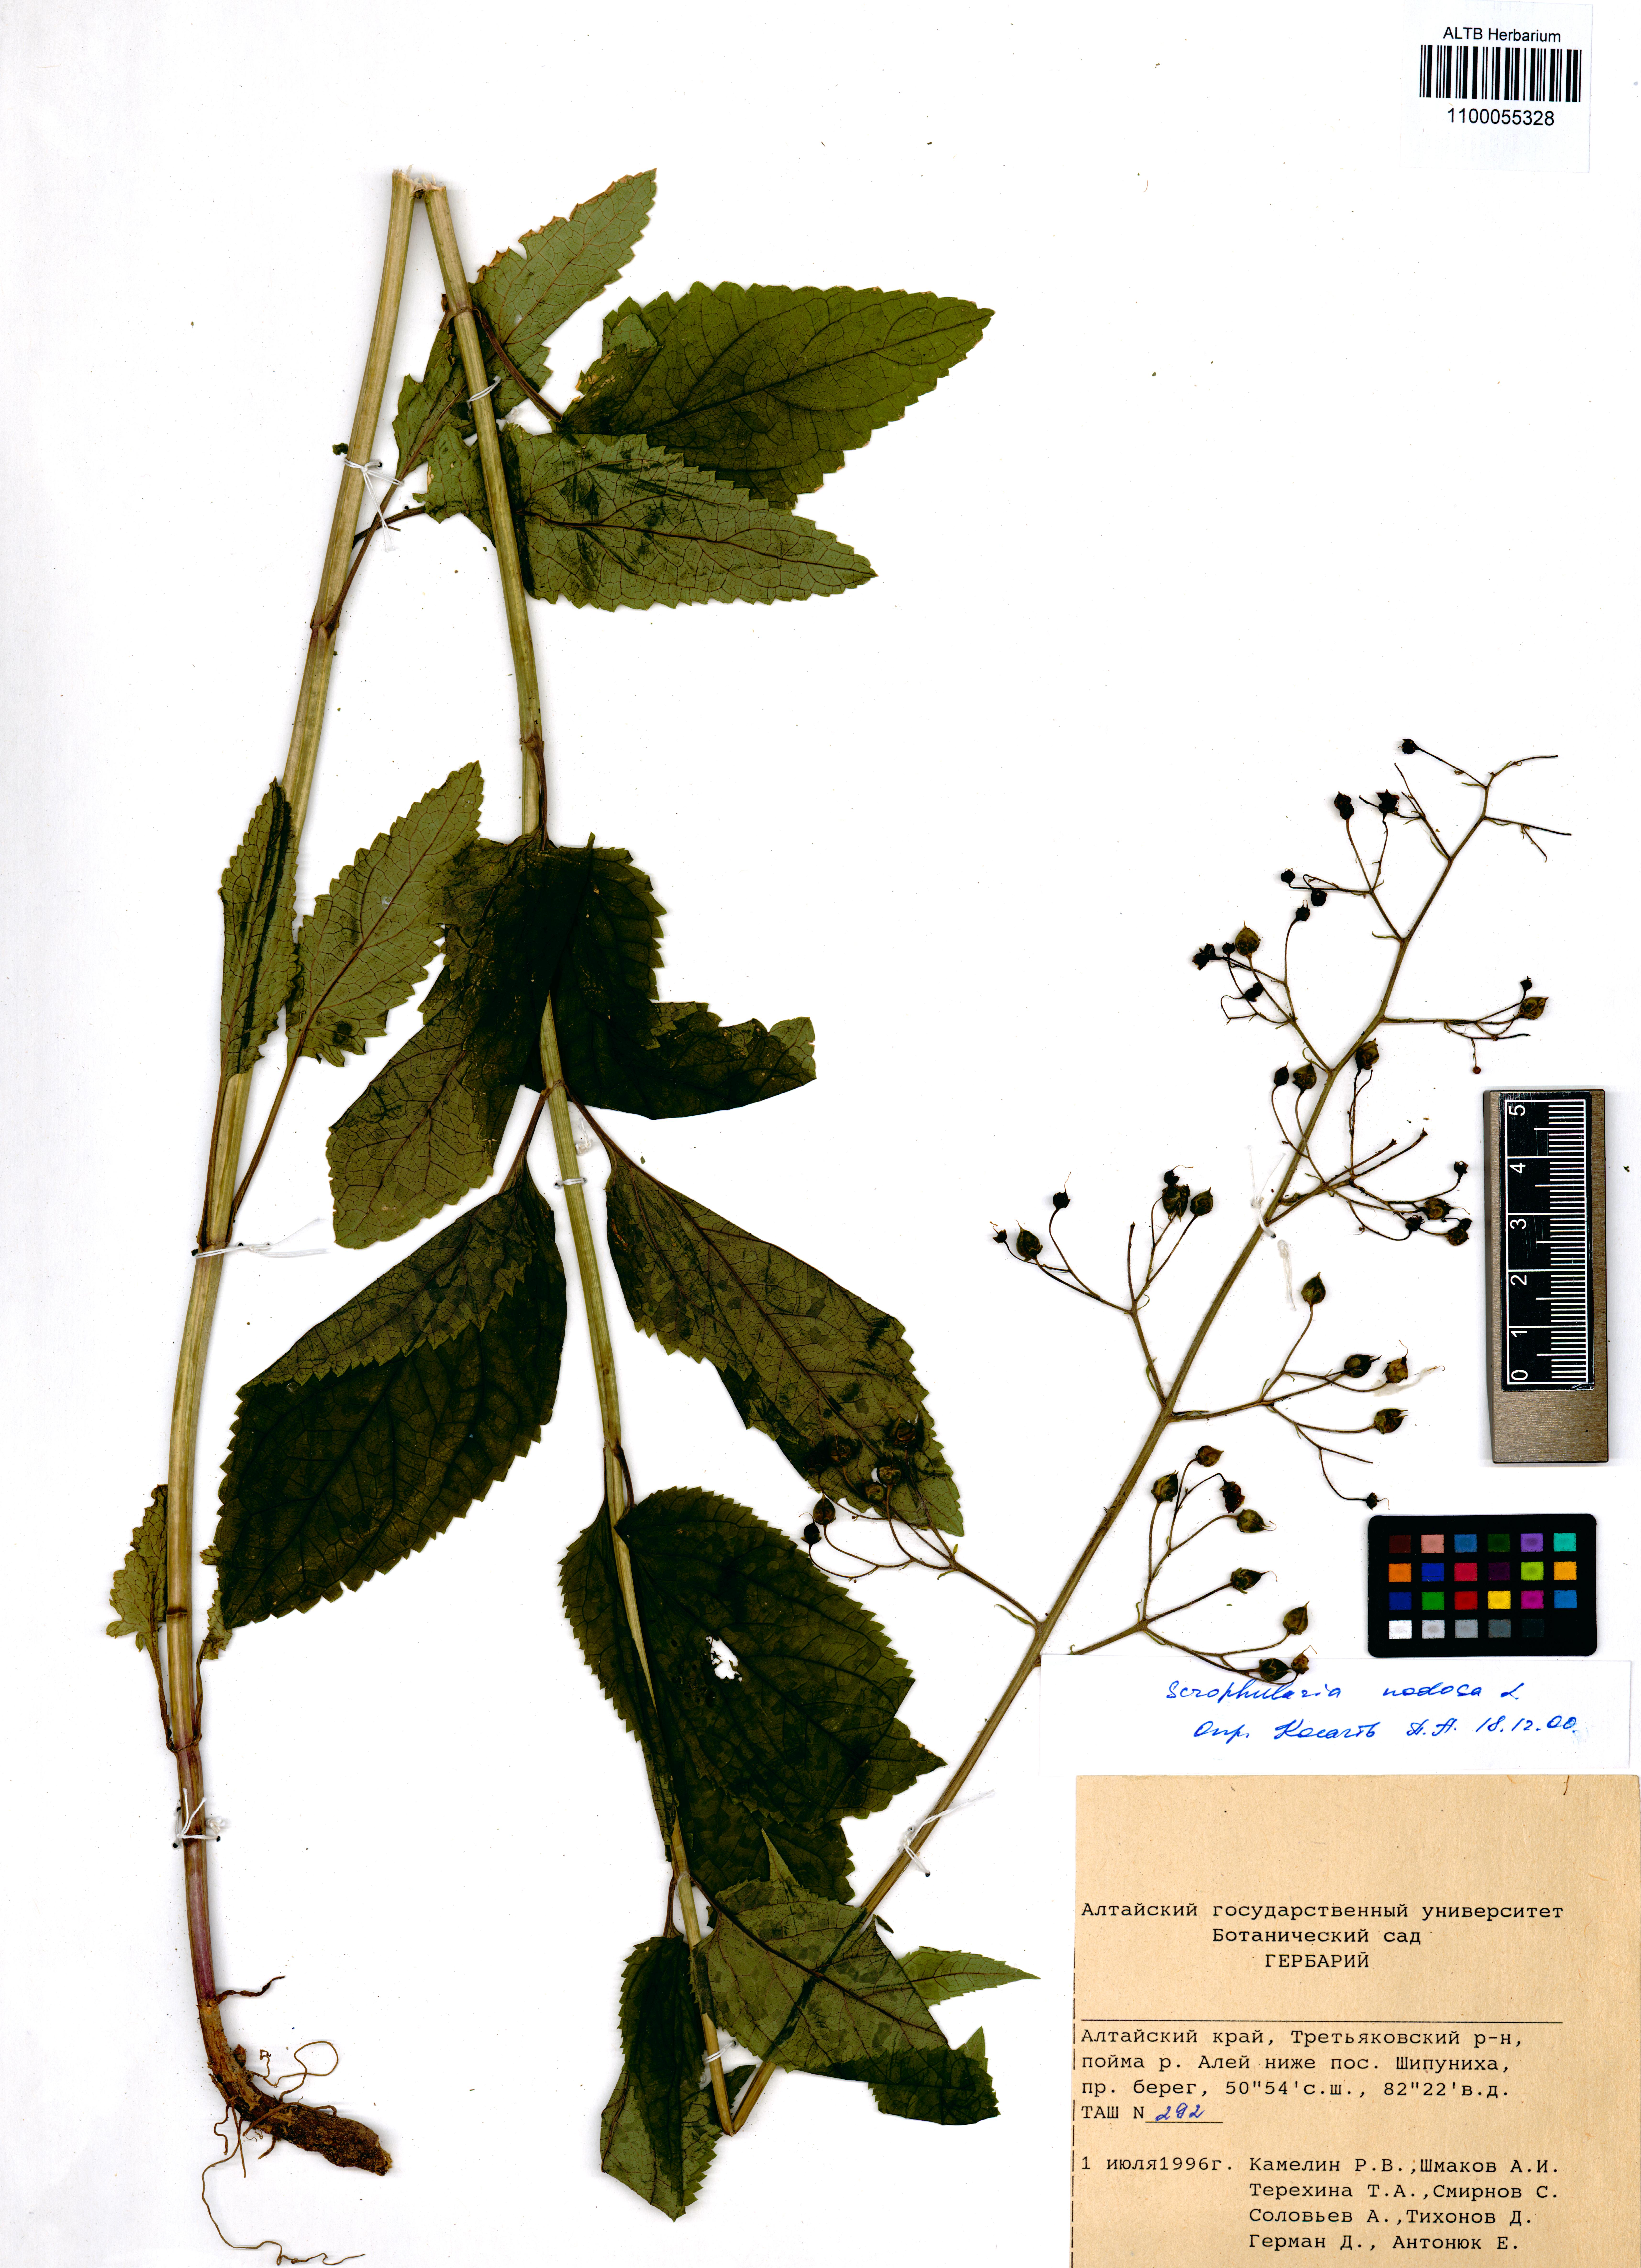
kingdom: Plantae
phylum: Tracheophyta
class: Magnoliopsida
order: Lamiales
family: Scrophulariaceae
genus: Scrophularia
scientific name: Scrophularia nodosa
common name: Common figwort
